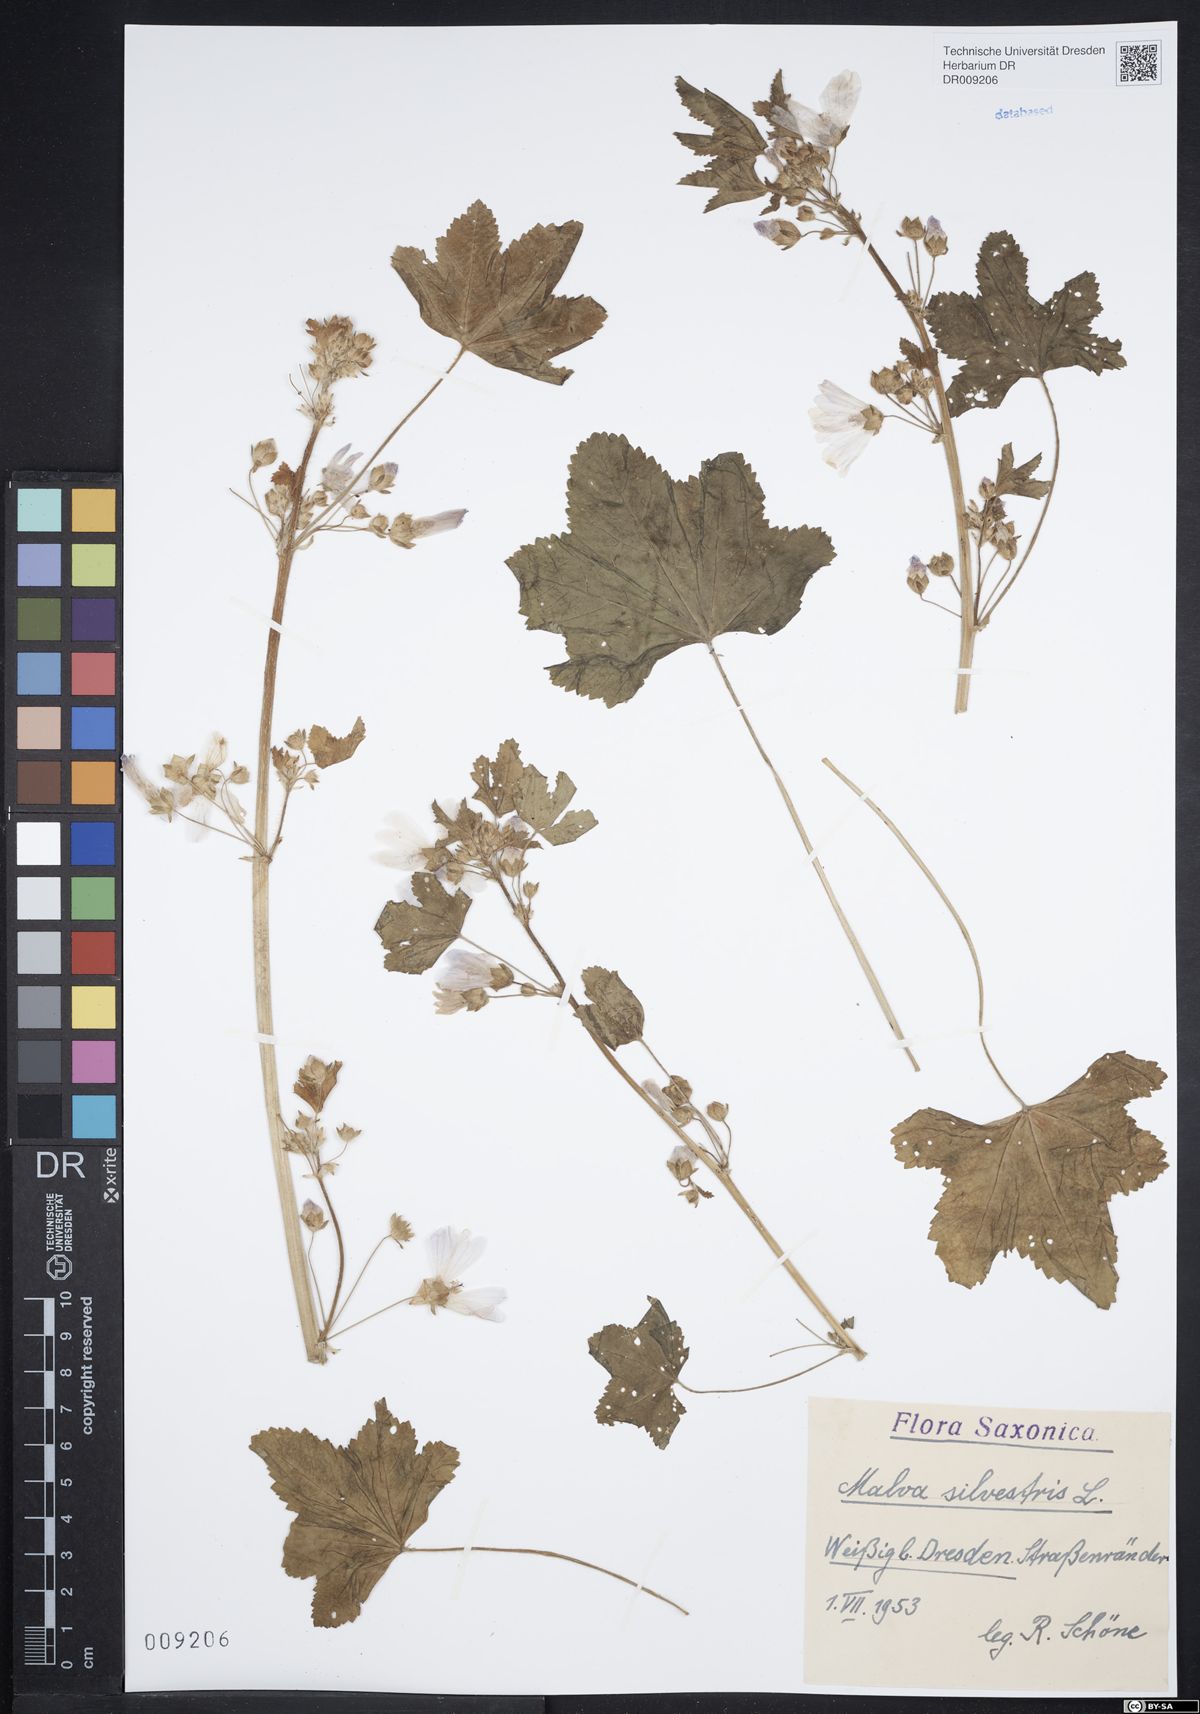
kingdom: Plantae
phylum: Tracheophyta
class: Magnoliopsida
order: Malvales
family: Malvaceae
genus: Malva
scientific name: Malva sylvestris
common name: Common mallow
